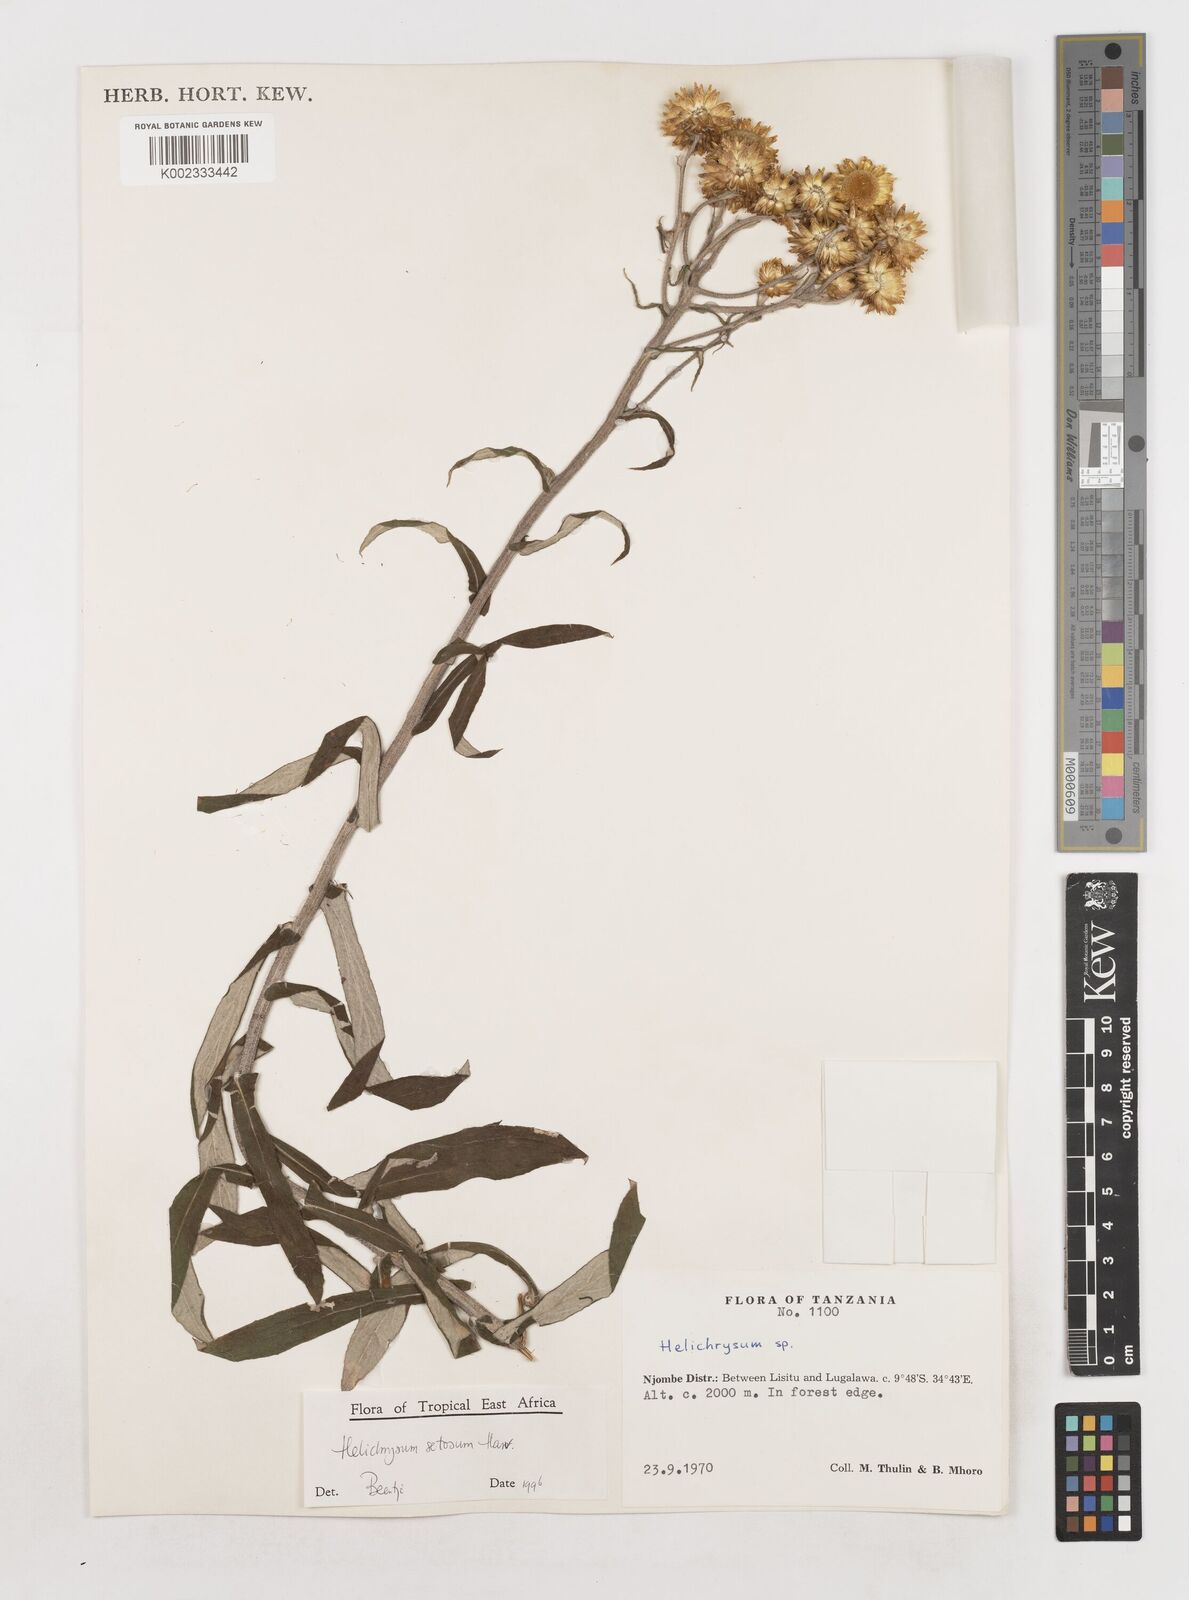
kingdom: Plantae
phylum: Tracheophyta
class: Magnoliopsida
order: Asterales
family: Asteraceae
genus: Helichrysum
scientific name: Helichrysum setosum
